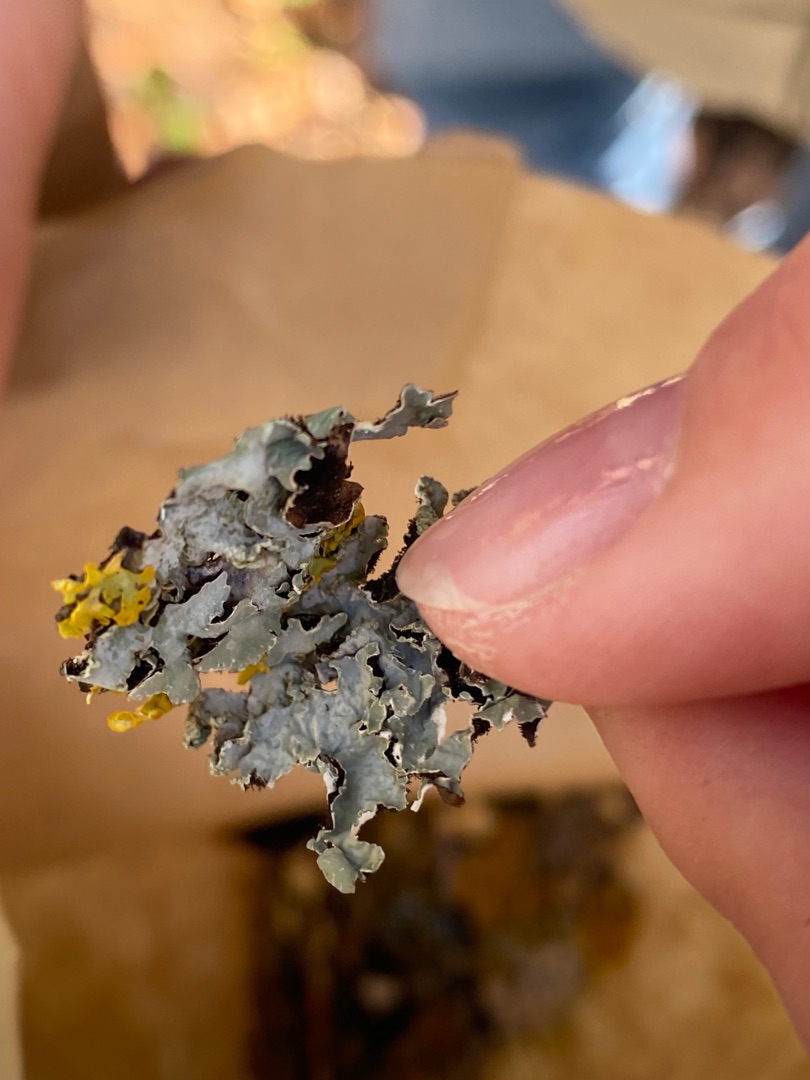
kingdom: Fungi
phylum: Ascomycota
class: Lecanoromycetes
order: Lecanorales
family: Parmeliaceae
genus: Parmelia
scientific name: Parmelia sulcata
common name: Rynket skållav
